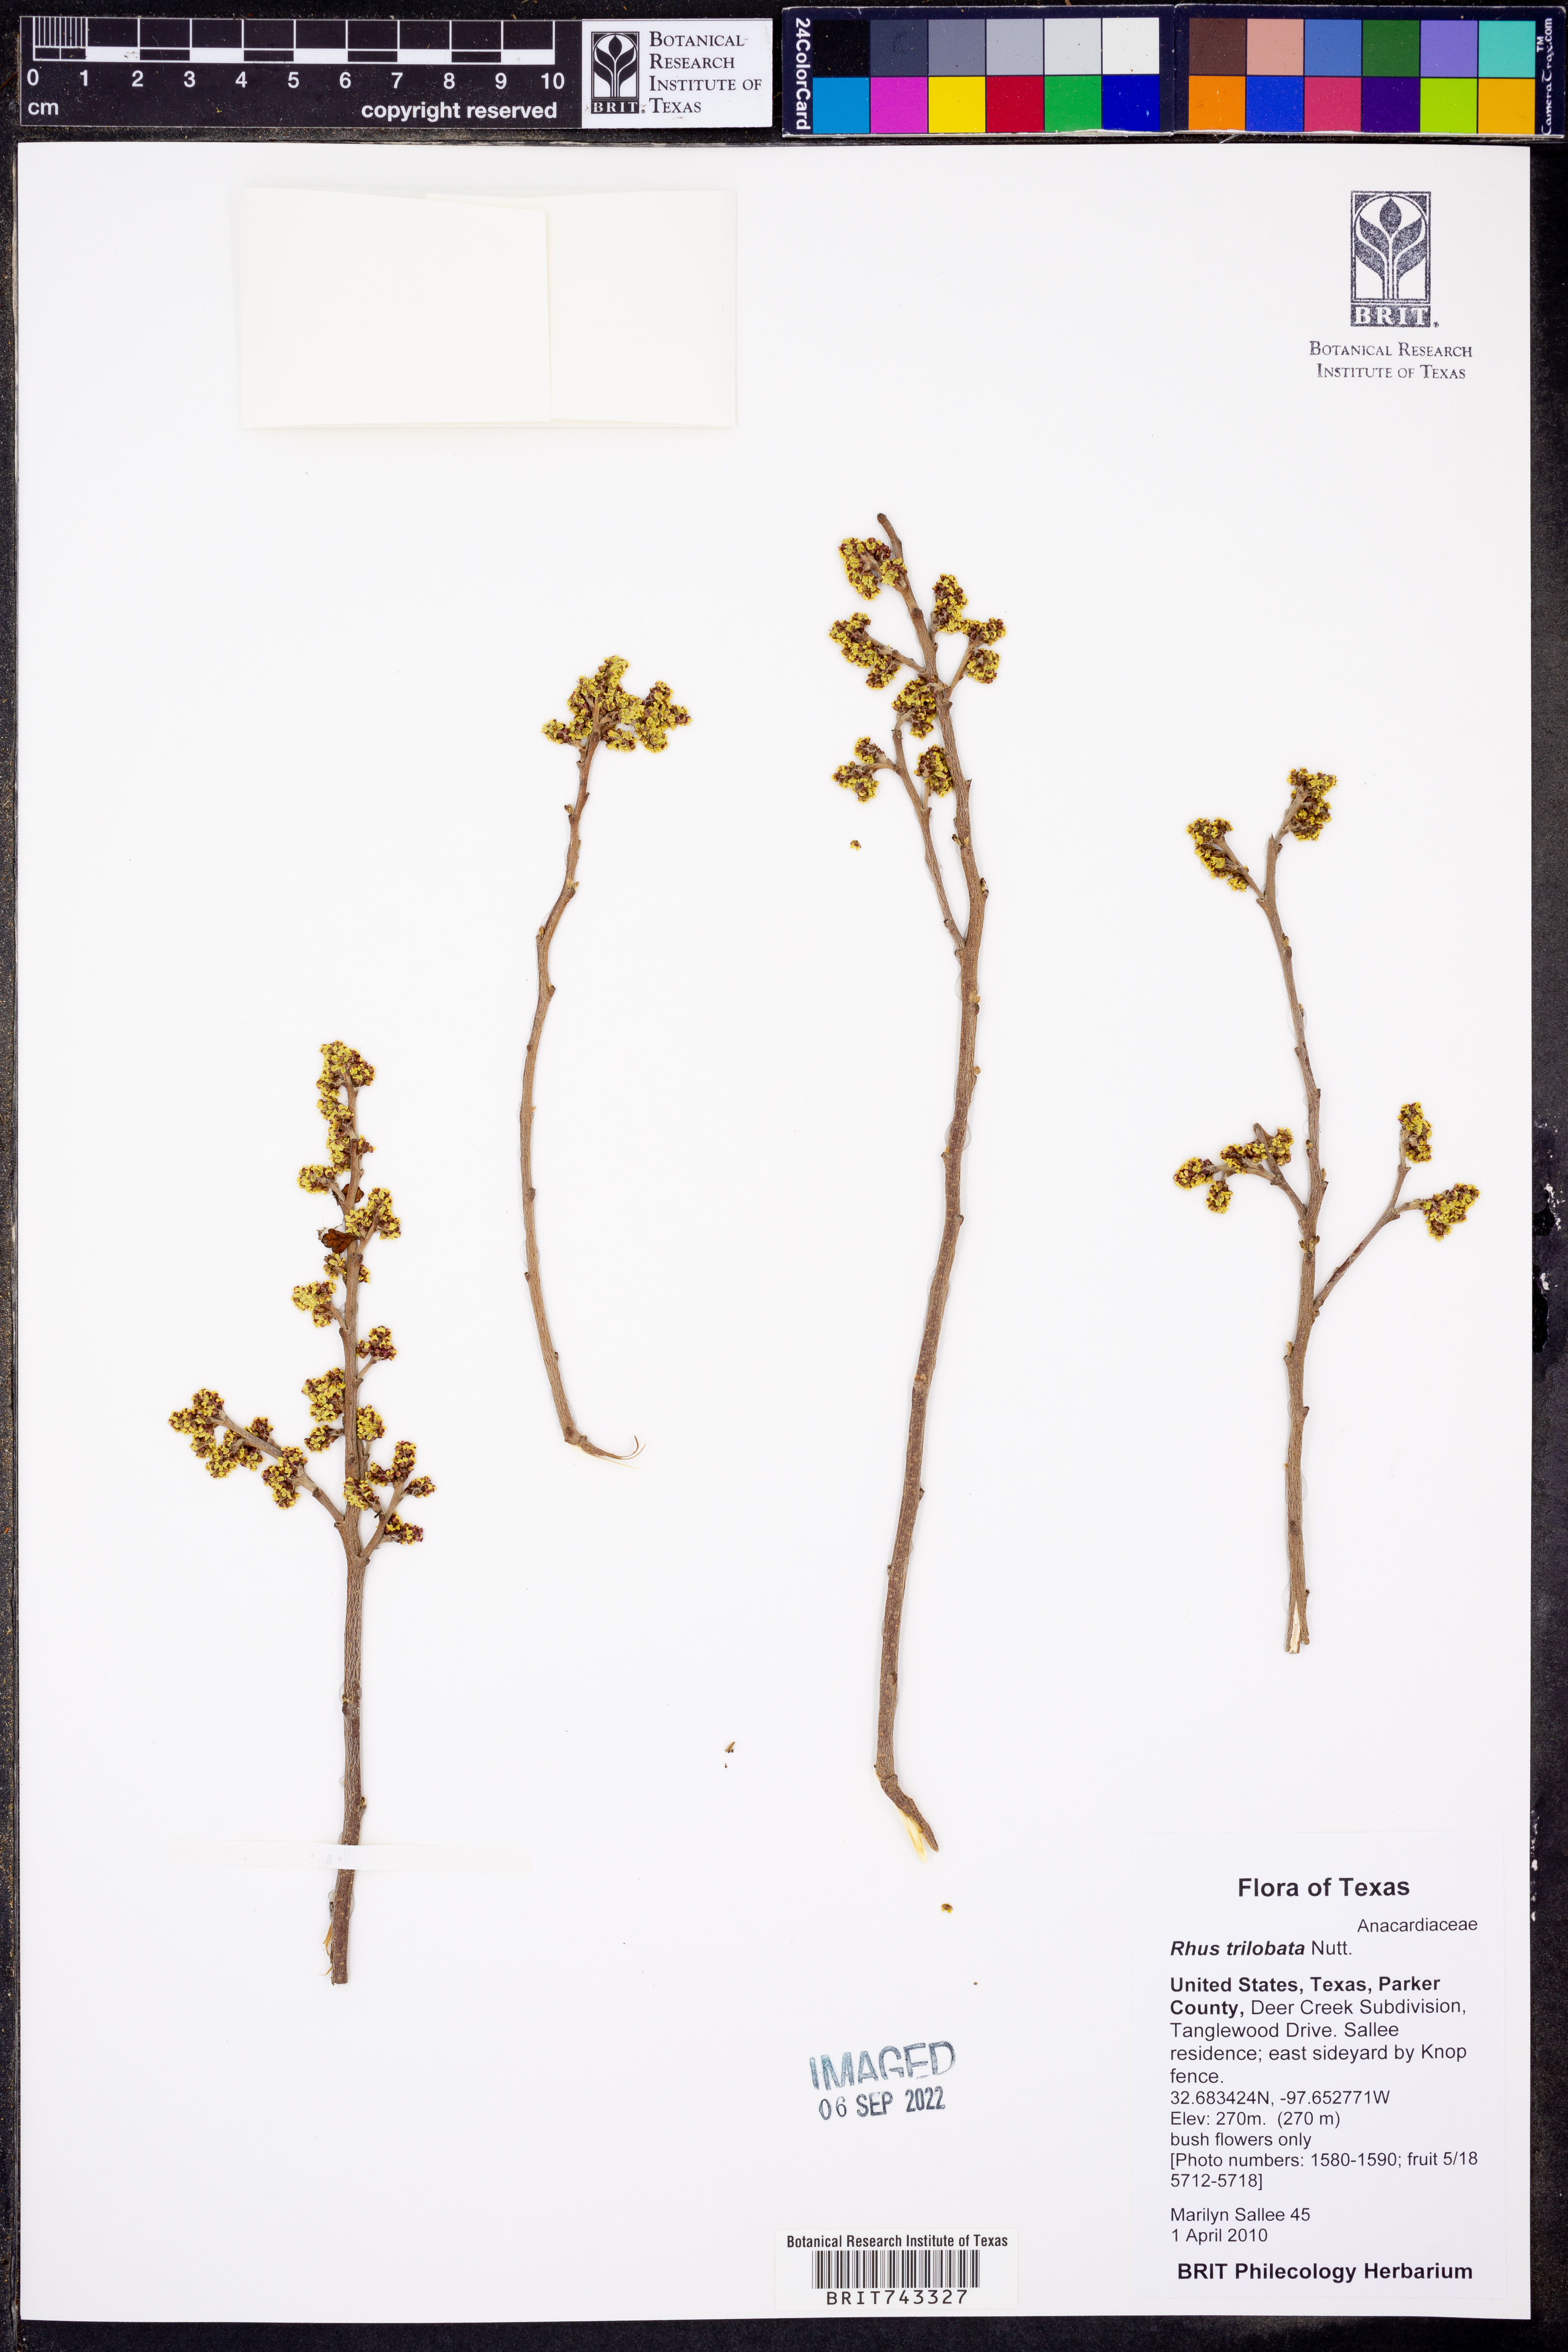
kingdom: Plantae
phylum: Tracheophyta
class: Magnoliopsida
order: Sapindales
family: Anacardiaceae
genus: Rhus
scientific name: Rhus trilobata
